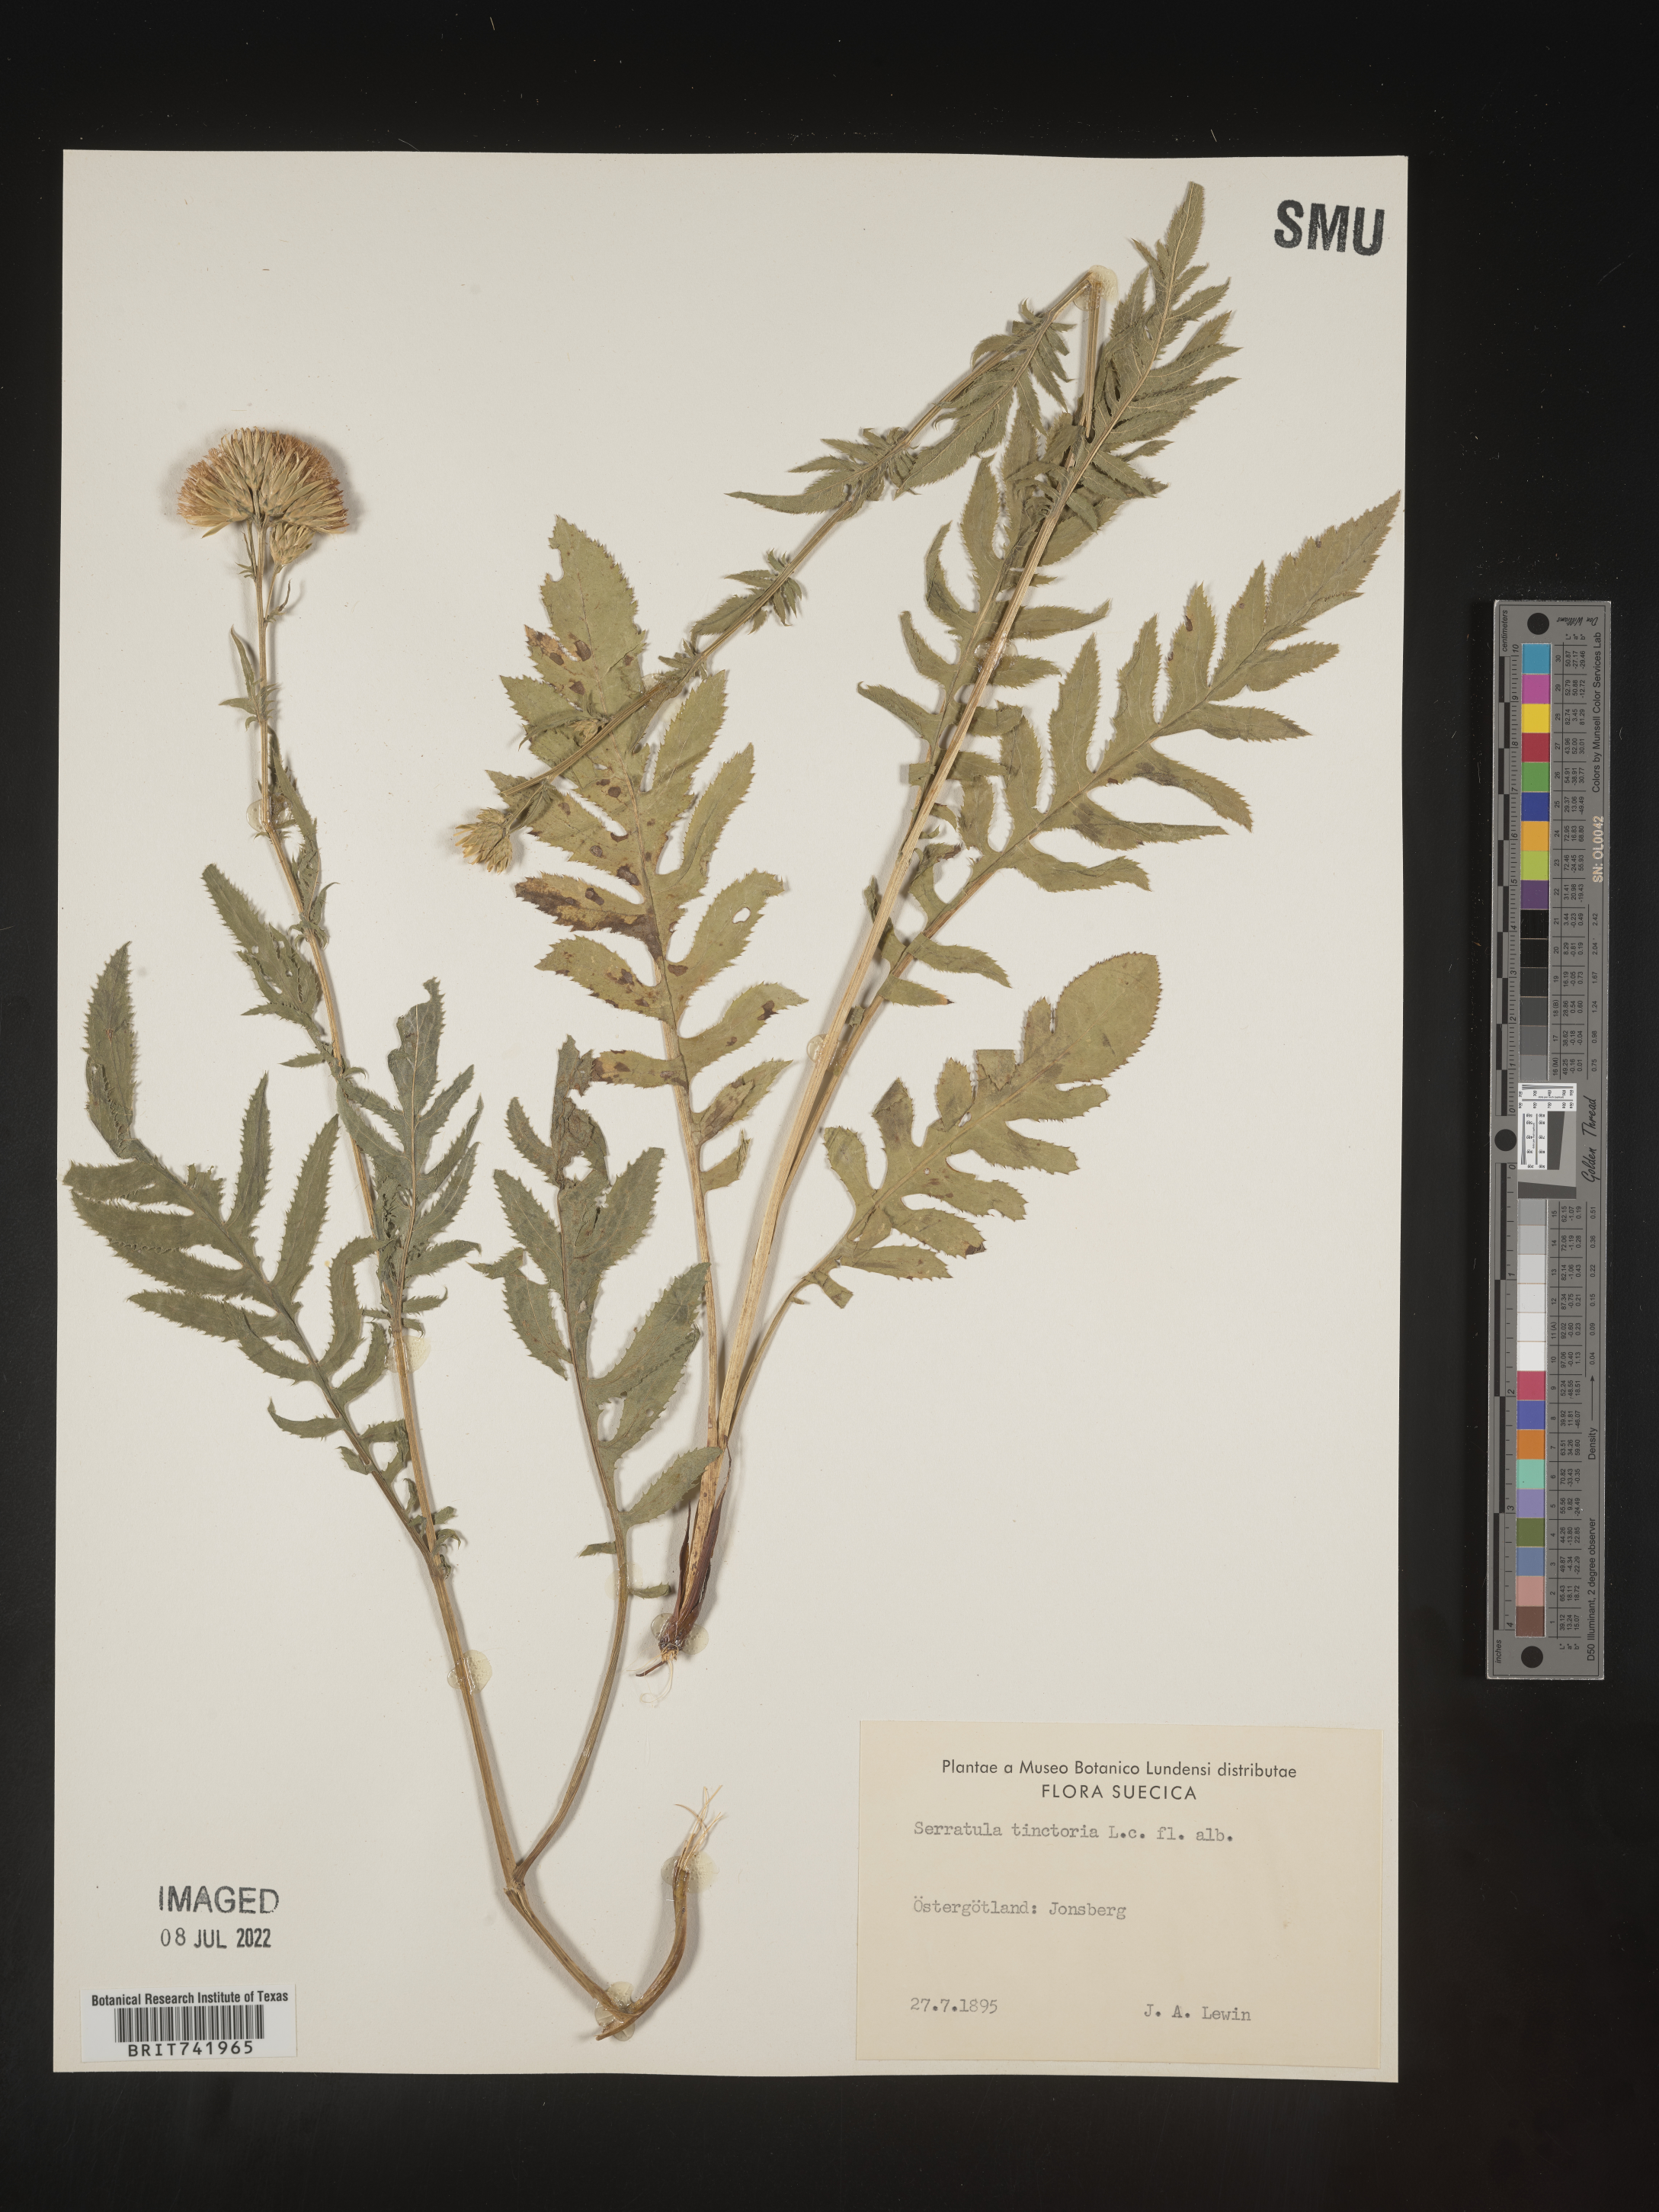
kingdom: Plantae
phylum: Tracheophyta
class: Magnoliopsida
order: Asterales
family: Asteraceae
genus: Serratula
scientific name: Serratula
